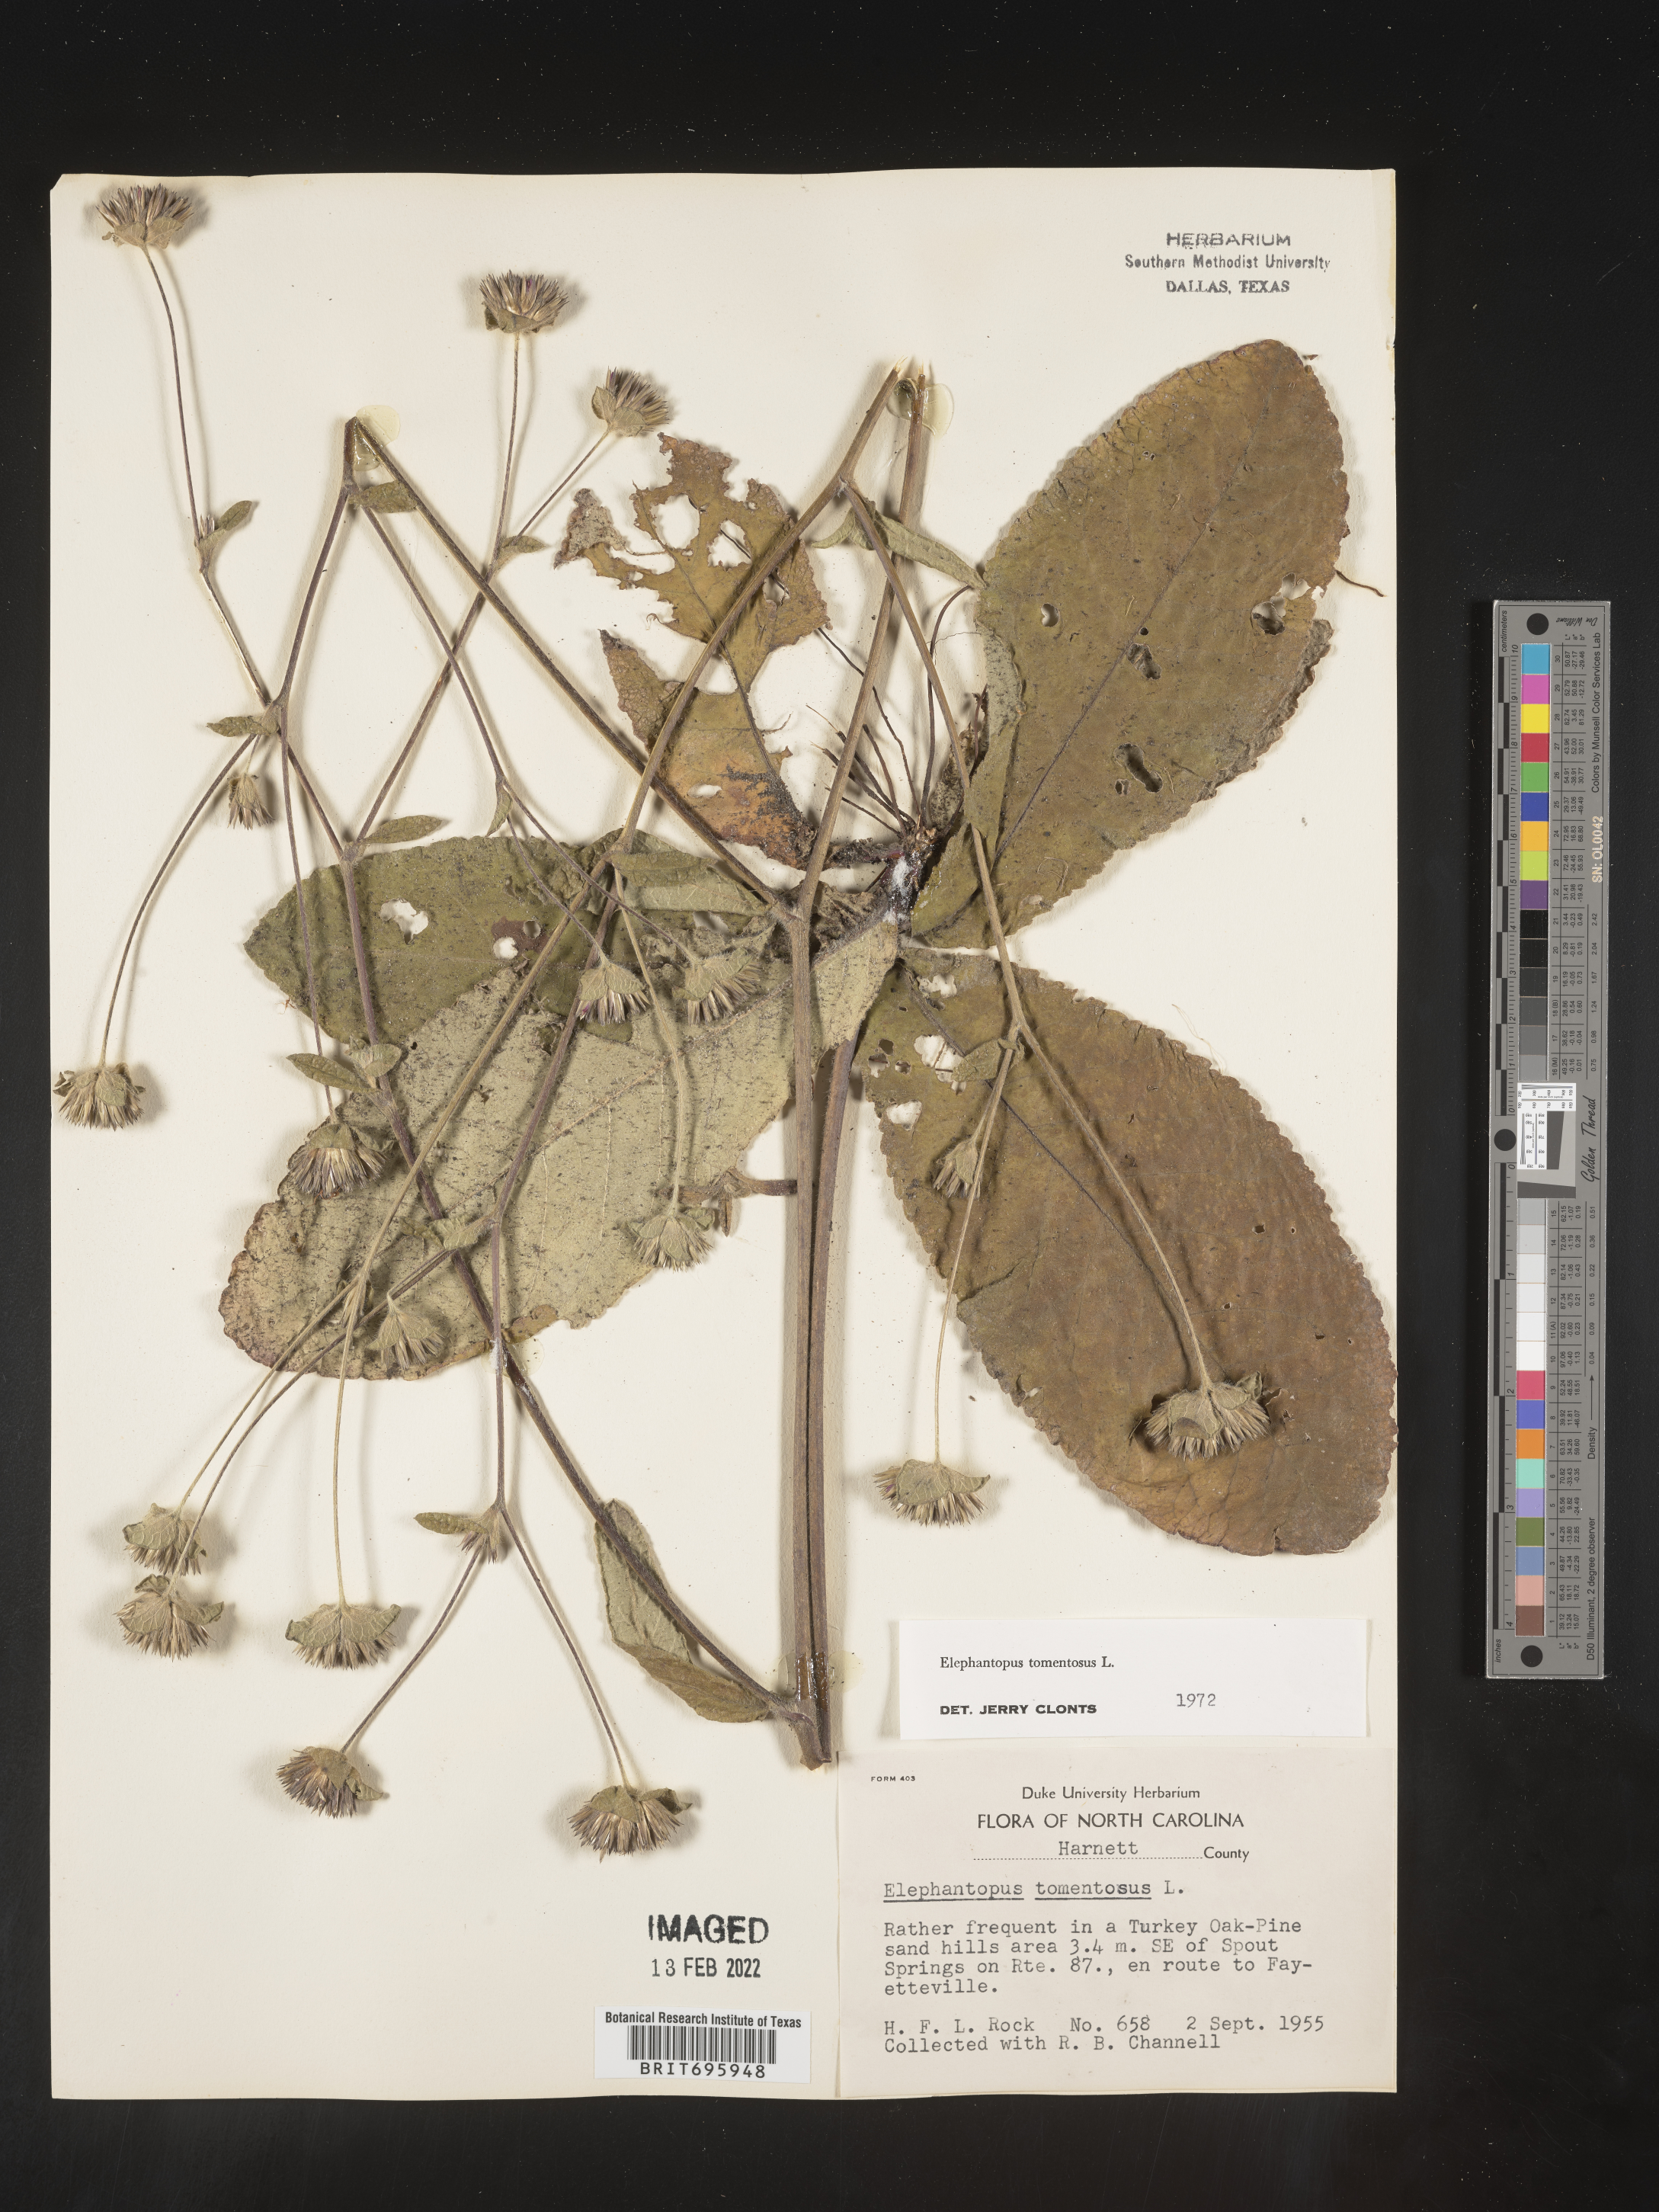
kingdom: Plantae
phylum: Tracheophyta
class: Magnoliopsida
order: Asterales
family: Asteraceae
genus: Elephantopus
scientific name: Elephantopus tomentosus
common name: Tobacco-weed
